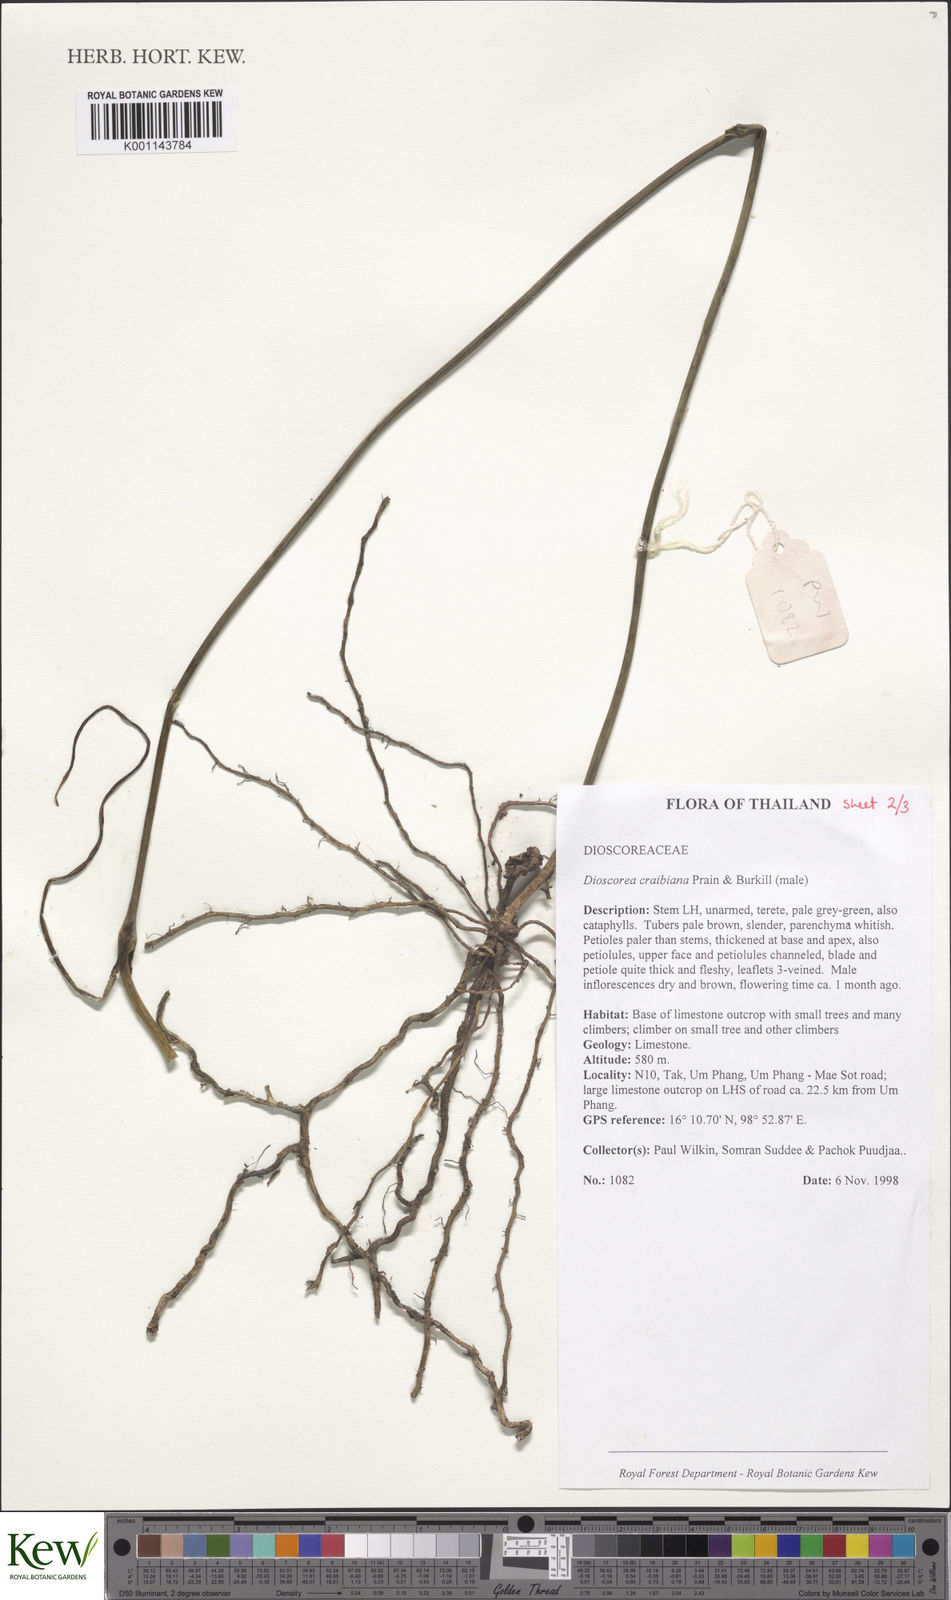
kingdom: Plantae
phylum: Tracheophyta
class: Liliopsida
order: Dioscoreales
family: Dioscoreaceae
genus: Dioscorea
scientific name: Dioscorea craibiana
